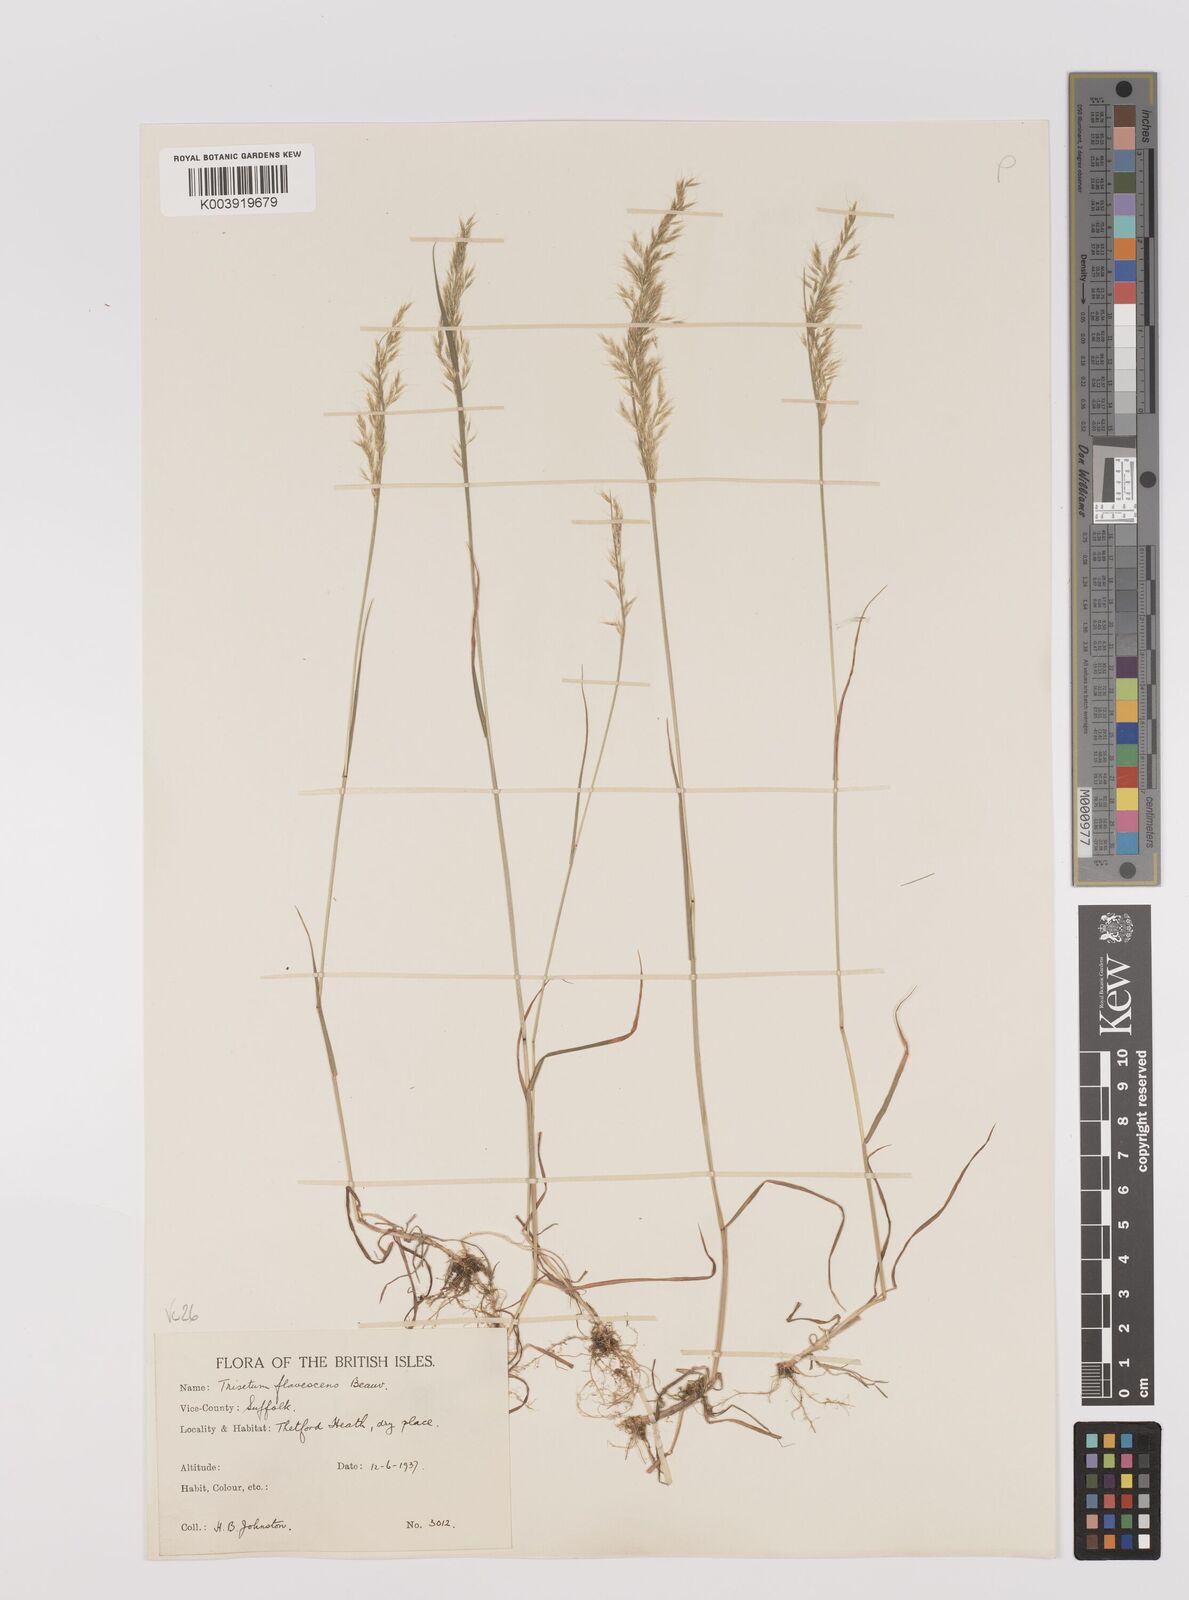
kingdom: Plantae
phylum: Tracheophyta
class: Liliopsida
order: Poales
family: Poaceae
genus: Trisetum
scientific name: Trisetum flavescens
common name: Yellow oat-grass
